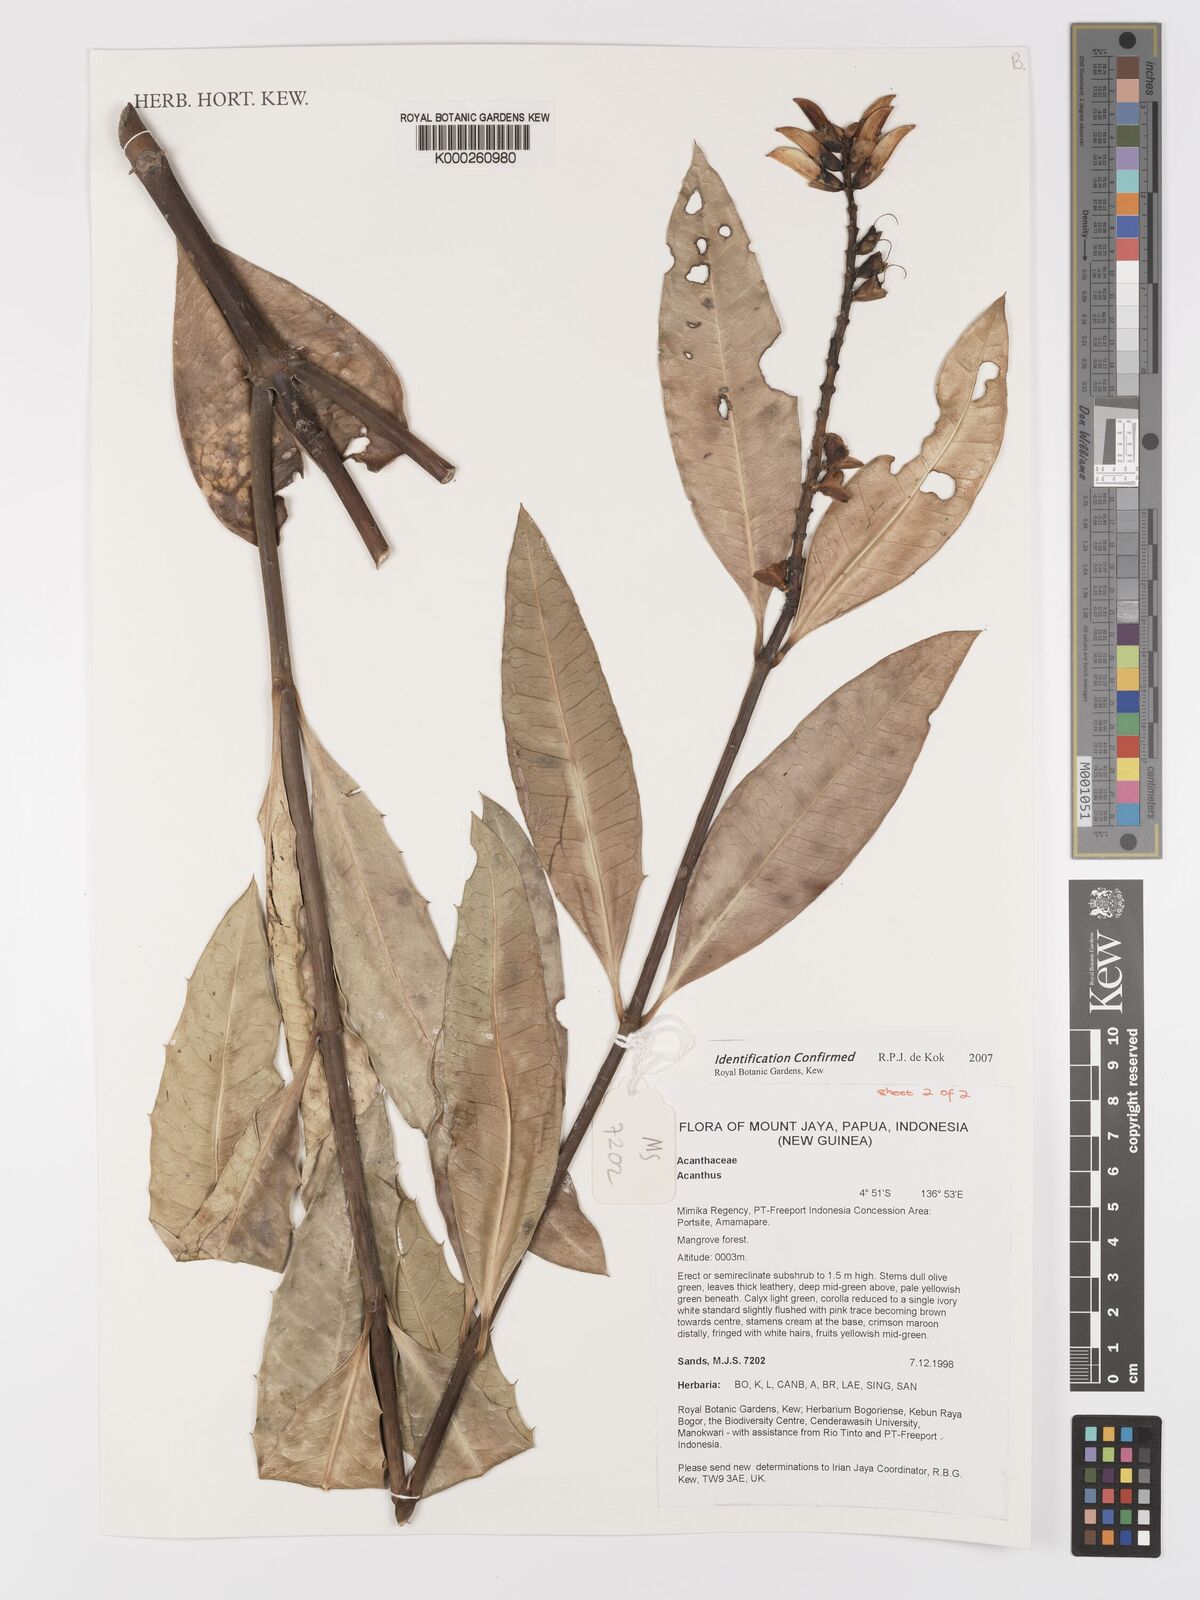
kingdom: Plantae
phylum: Tracheophyta
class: Magnoliopsida
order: Lamiales
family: Acanthaceae
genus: Acanthus
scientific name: Acanthus ilicifolius
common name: Holy mangrove
